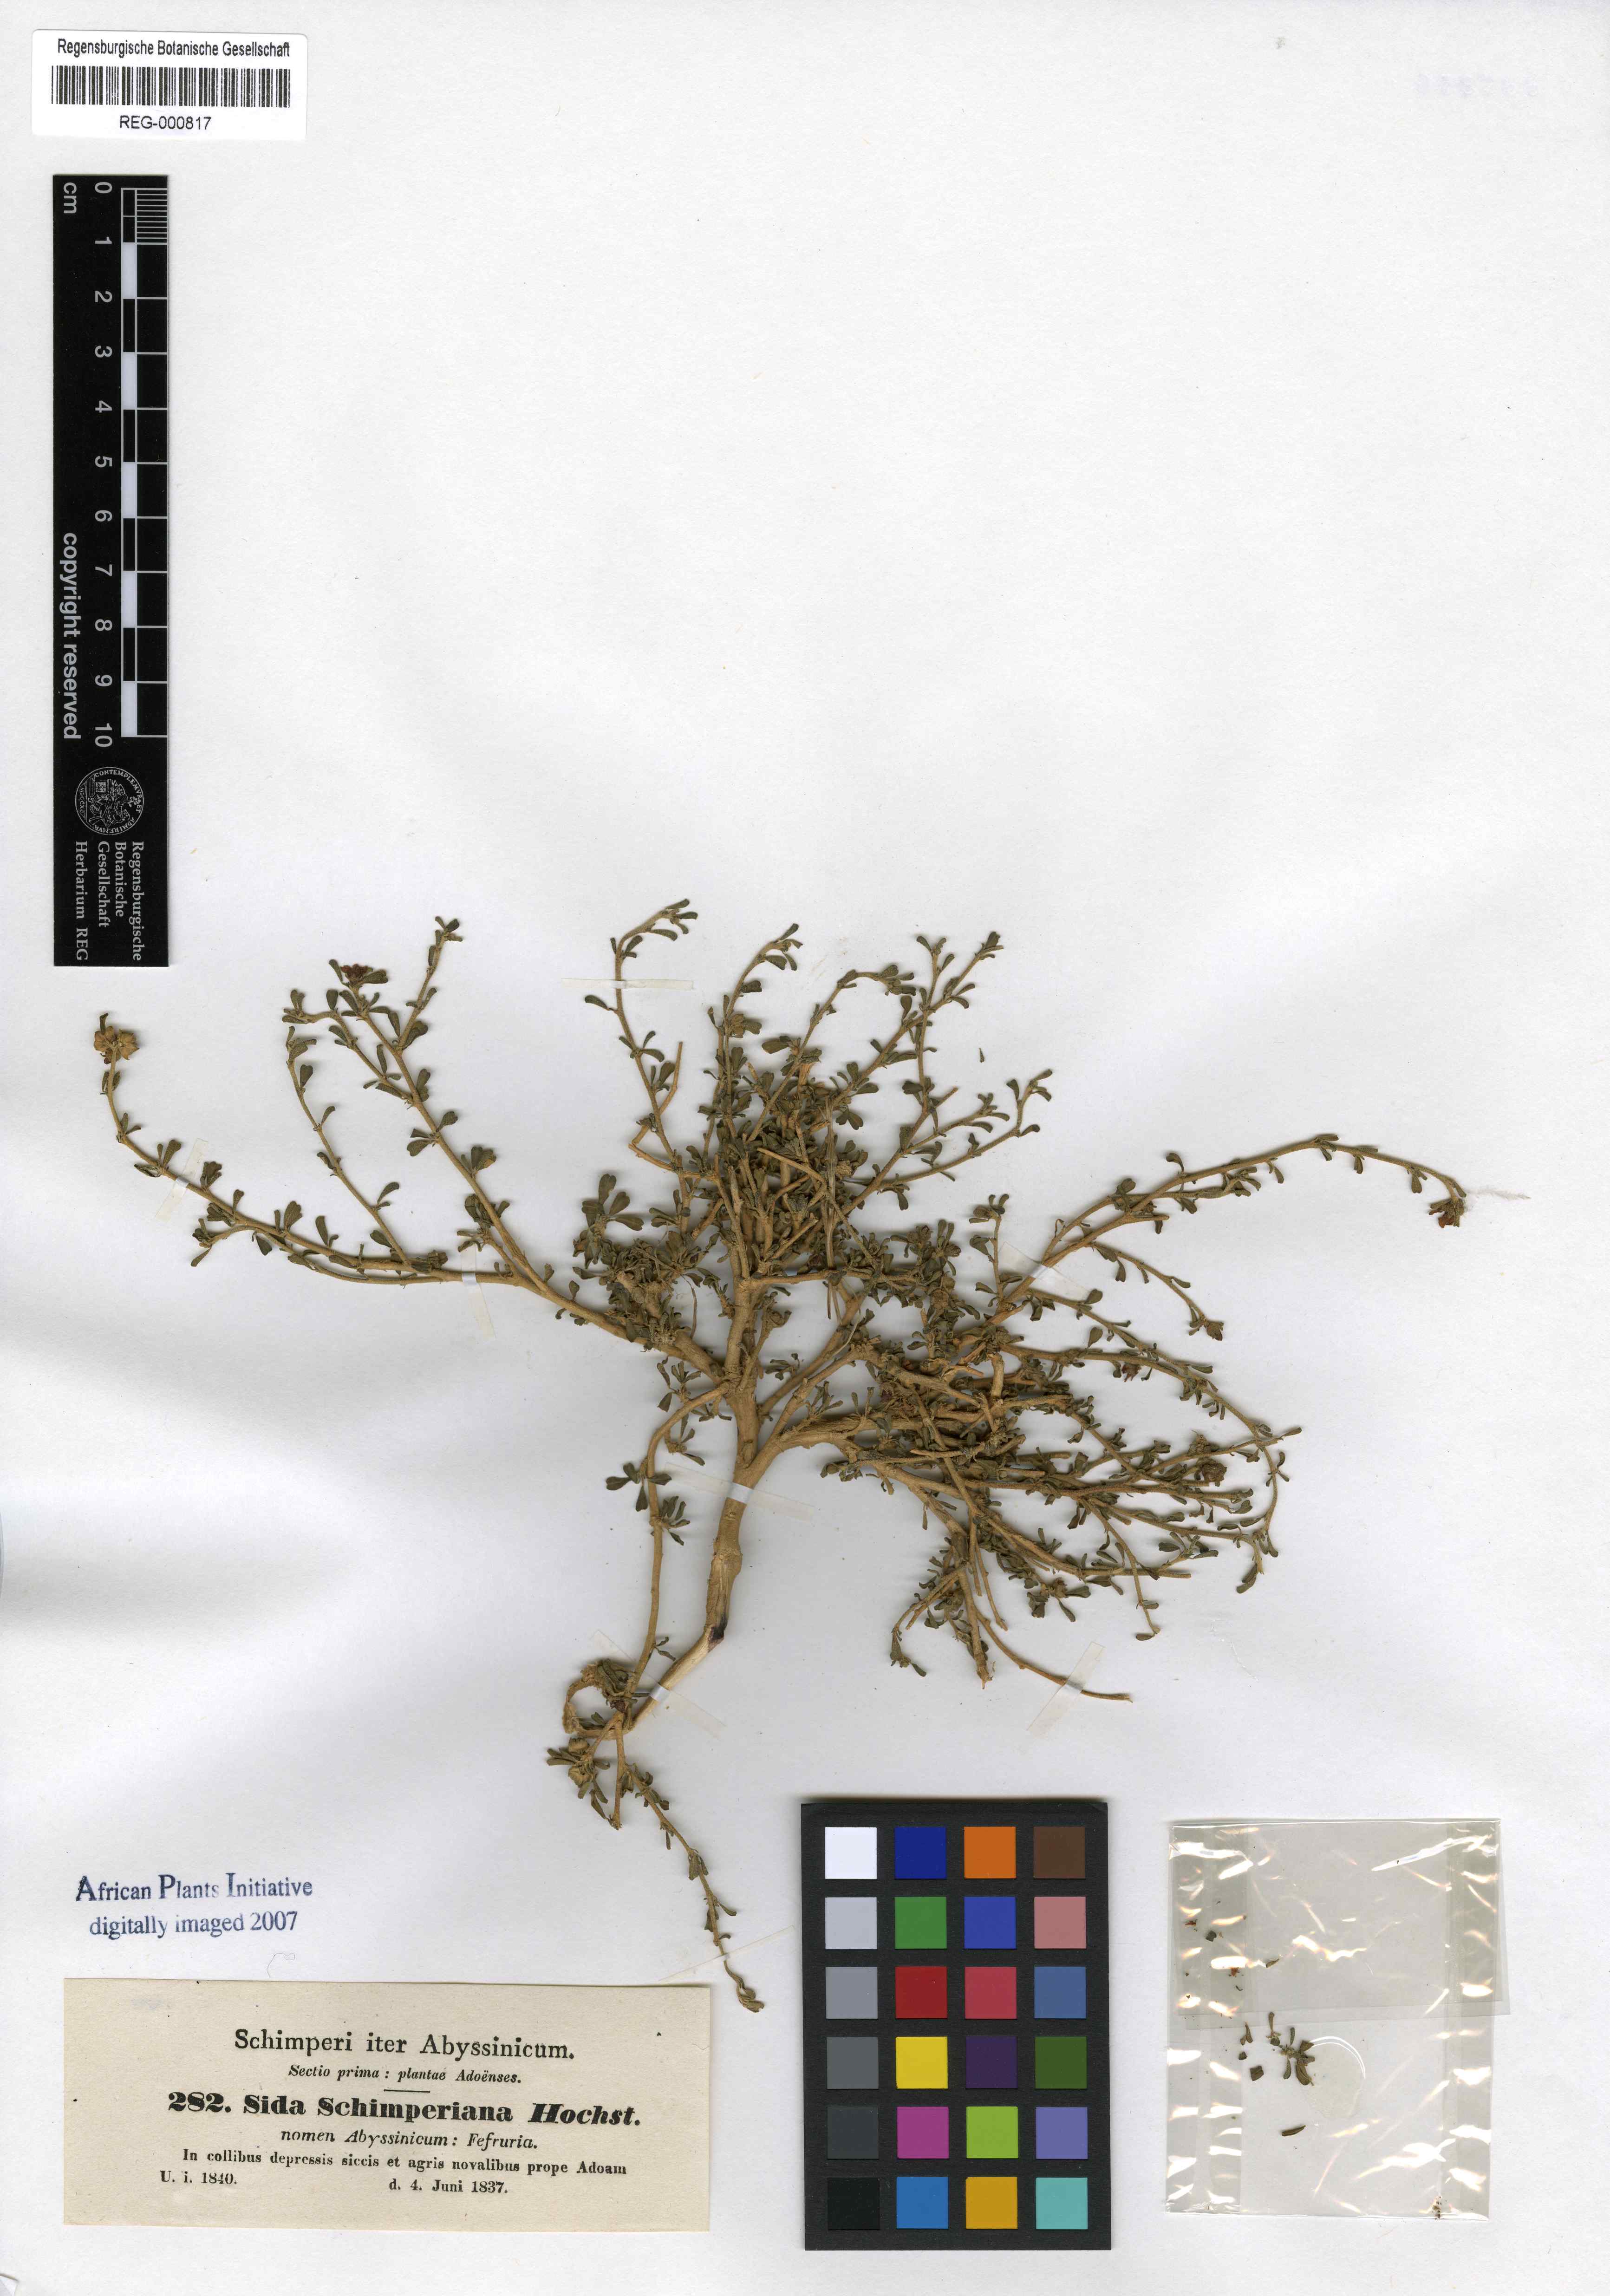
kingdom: Plantae
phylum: Tracheophyta
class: Magnoliopsida
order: Malvales
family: Malvaceae
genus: Sida
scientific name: Sida schimperiana
